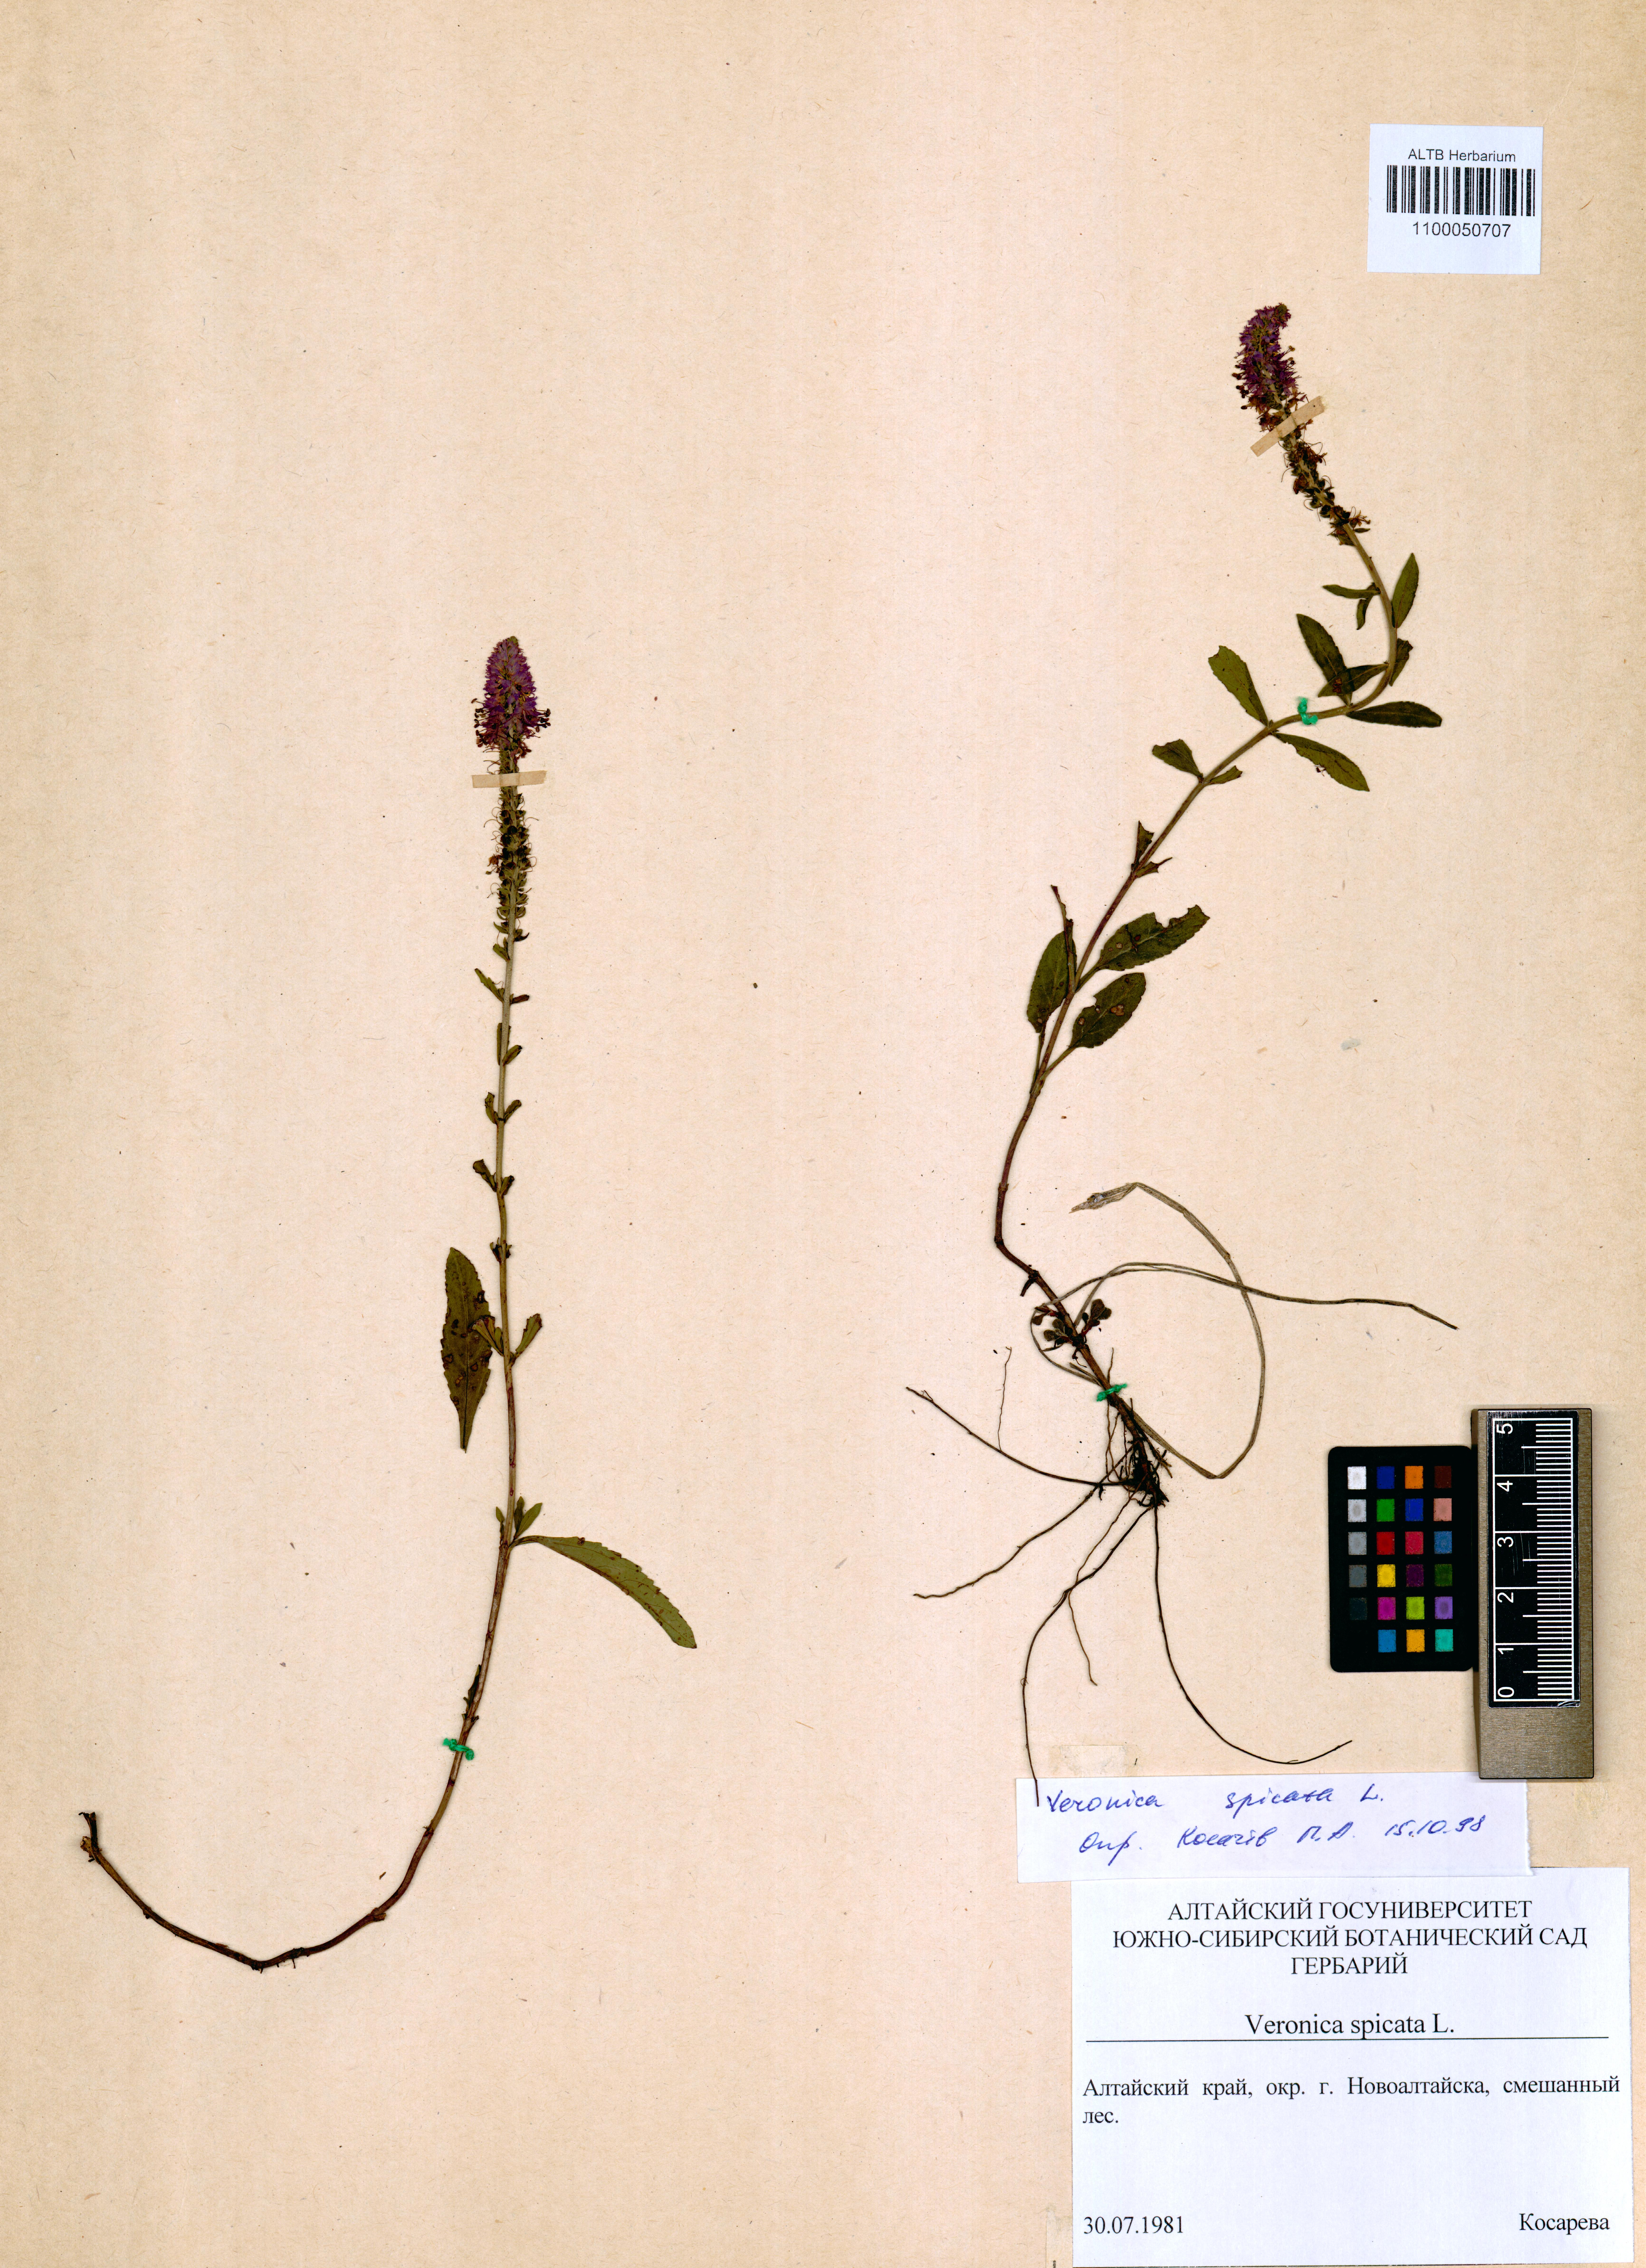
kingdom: Plantae
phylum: Tracheophyta
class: Magnoliopsida
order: Lamiales
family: Plantaginaceae
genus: Veronica
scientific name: Veronica spicata
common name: Spiked speedwell
